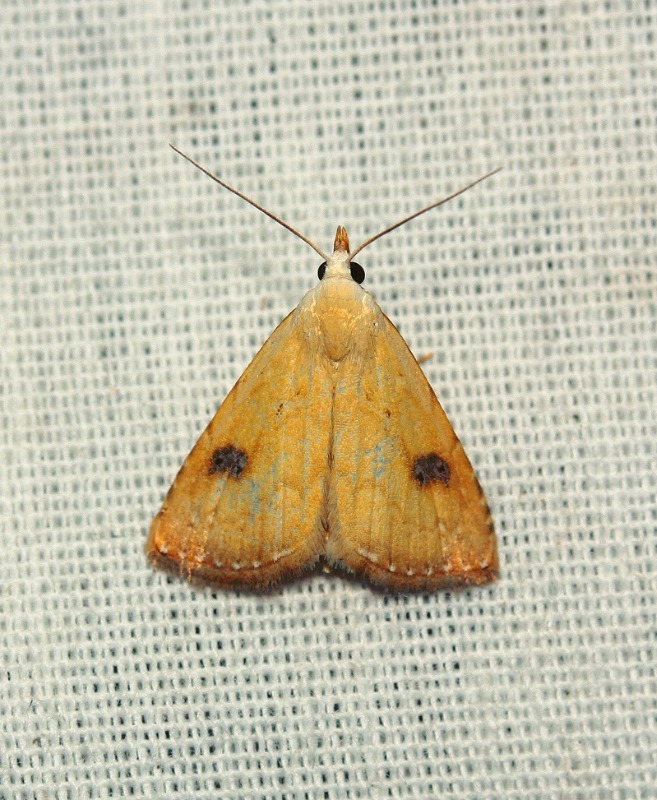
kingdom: Animalia
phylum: Arthropoda
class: Insecta
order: Lepidoptera
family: Erebidae
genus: Rivula
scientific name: Rivula sericealis
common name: Lille å-ugle
